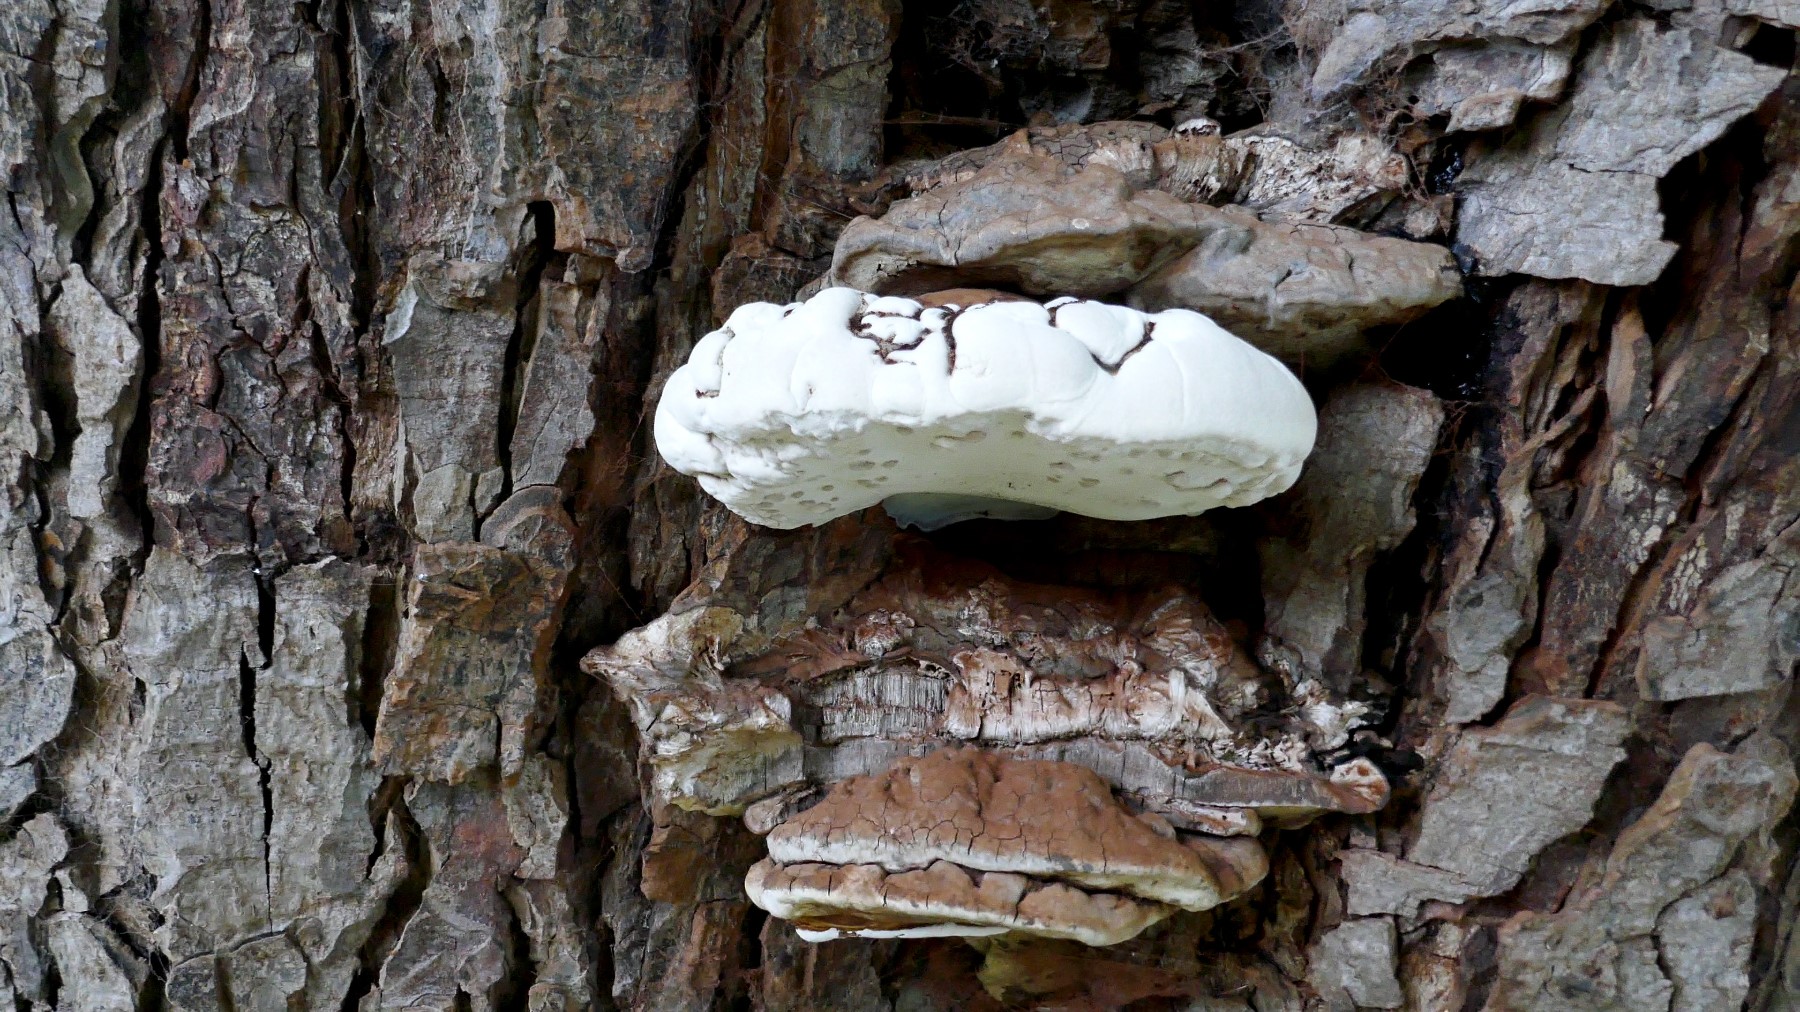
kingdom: Fungi
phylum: Basidiomycota
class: Agaricomycetes
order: Polyporales
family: Polyporaceae
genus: Ganoderma
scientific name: Ganoderma adspersum
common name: grov lakporesvamp
